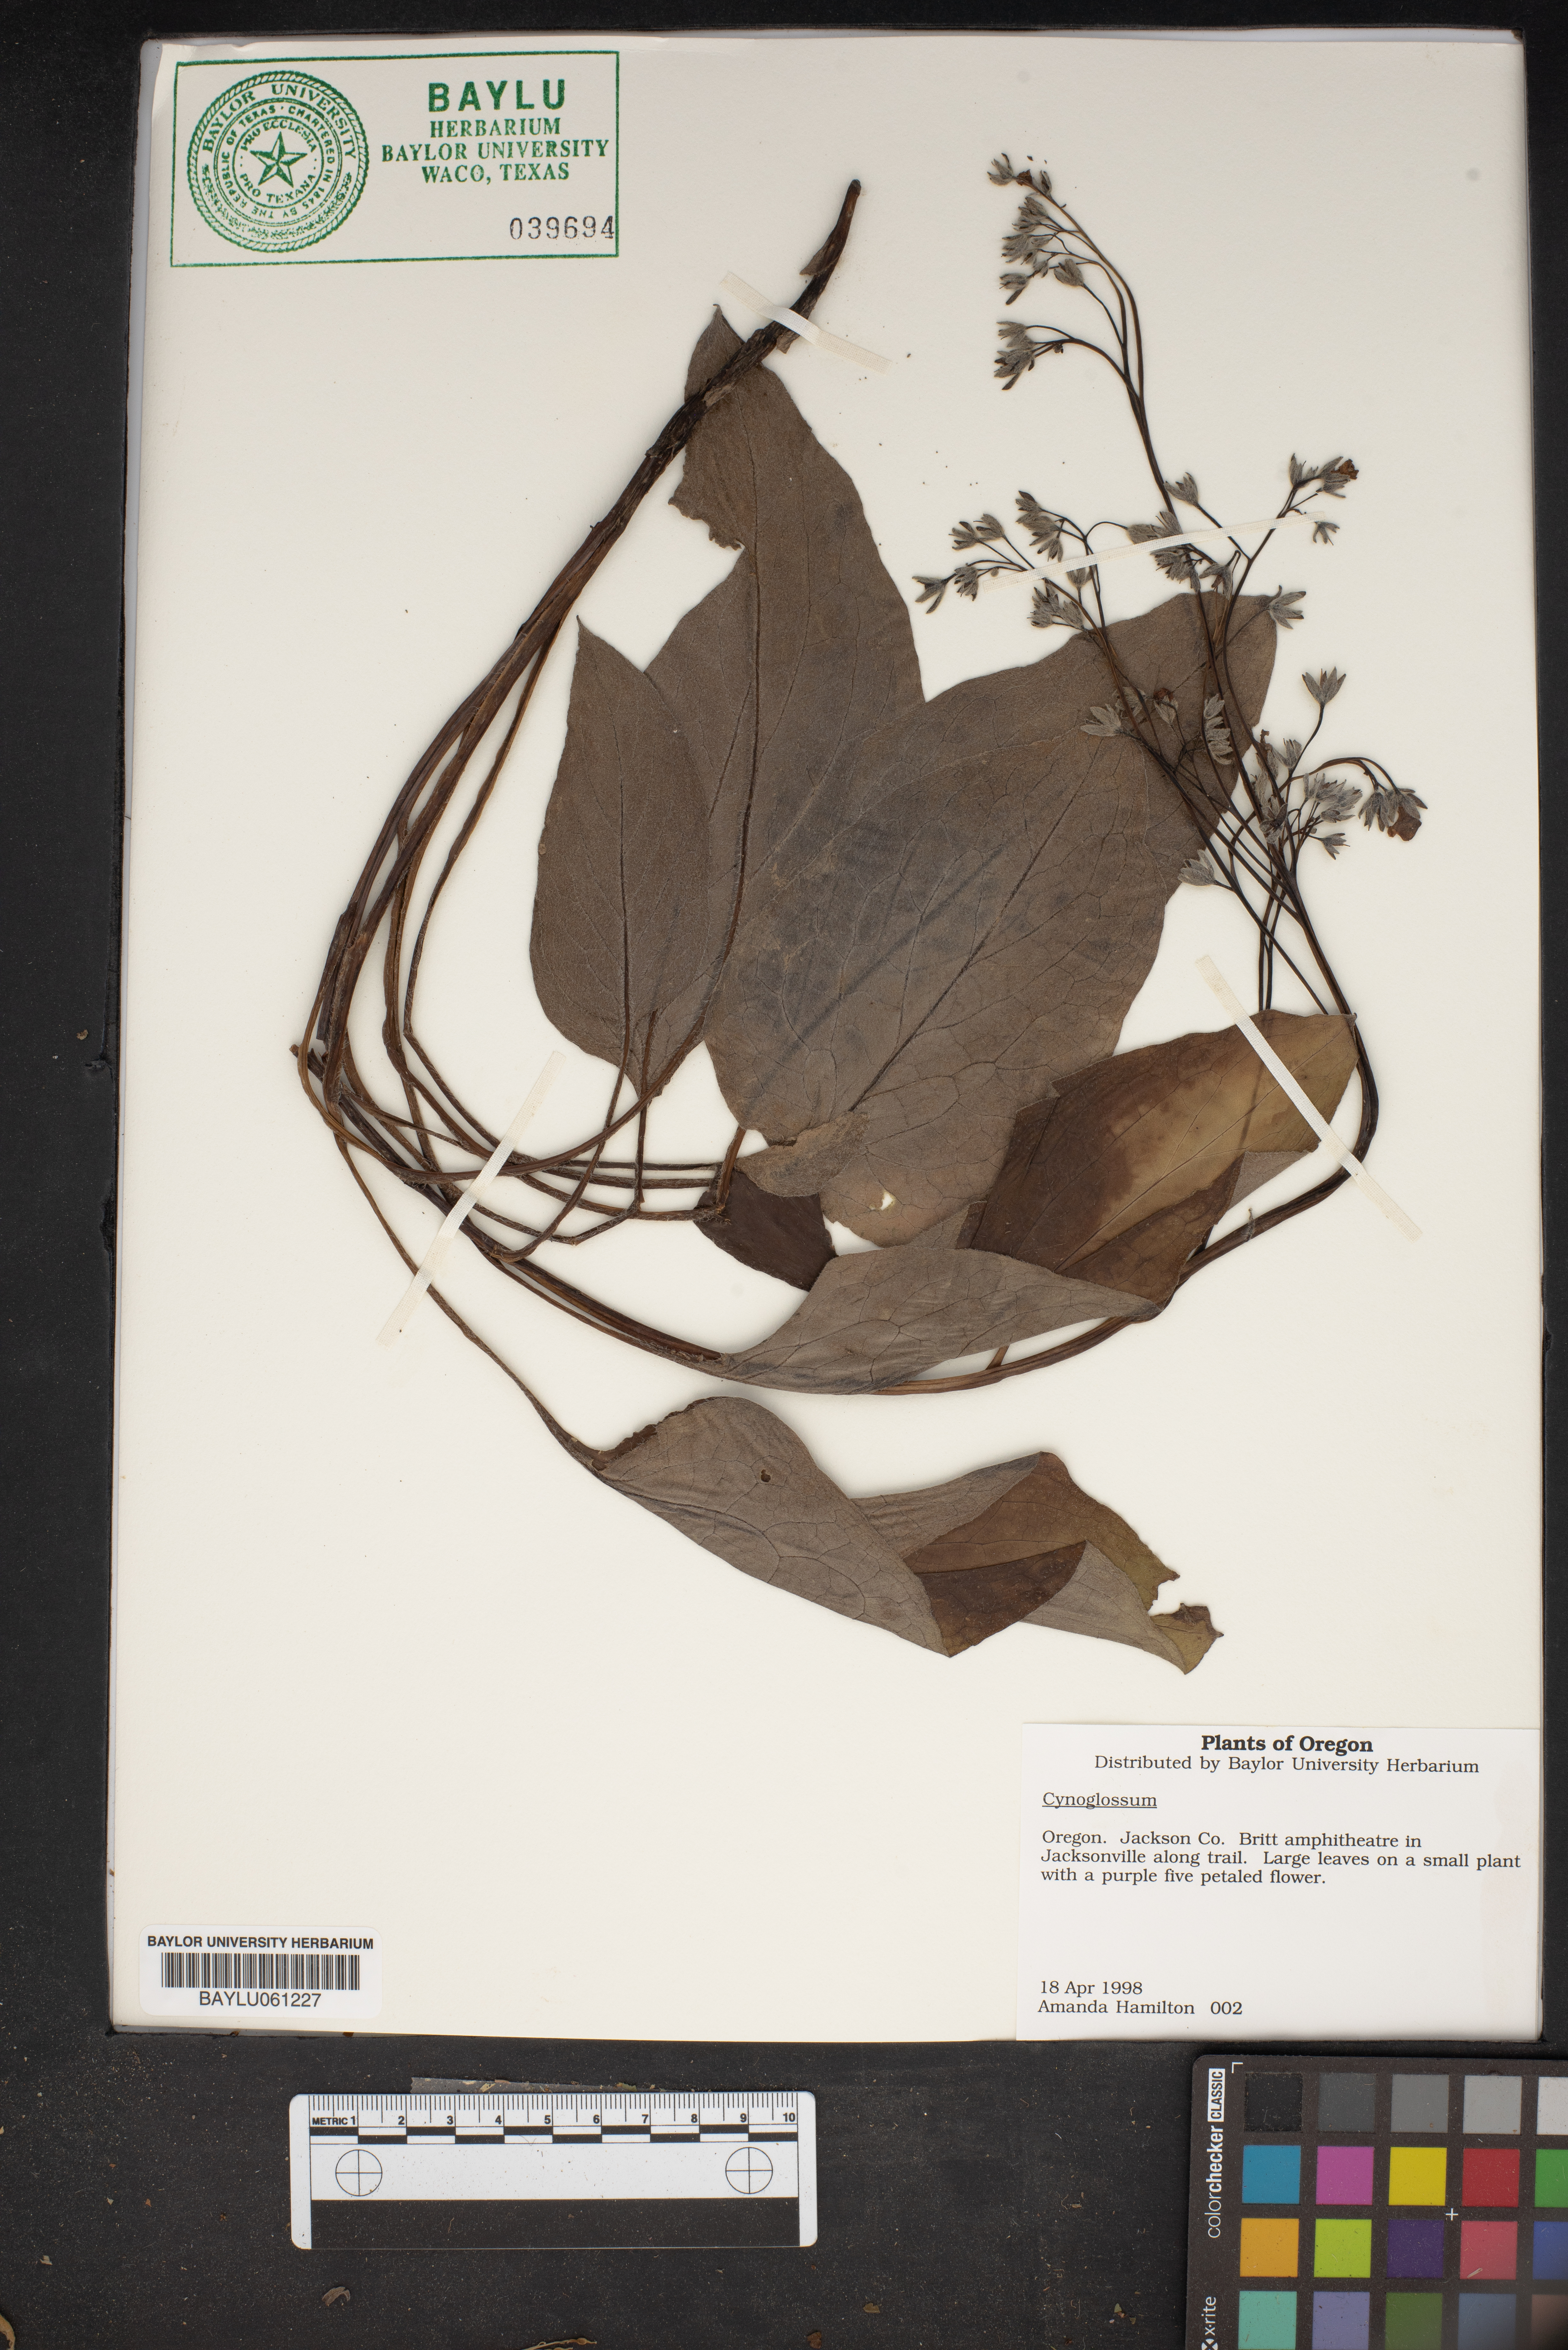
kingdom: Plantae
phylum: Tracheophyta
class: Magnoliopsida
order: Boraginales
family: Boraginaceae
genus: Cynoglossum
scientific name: Cynoglossum
